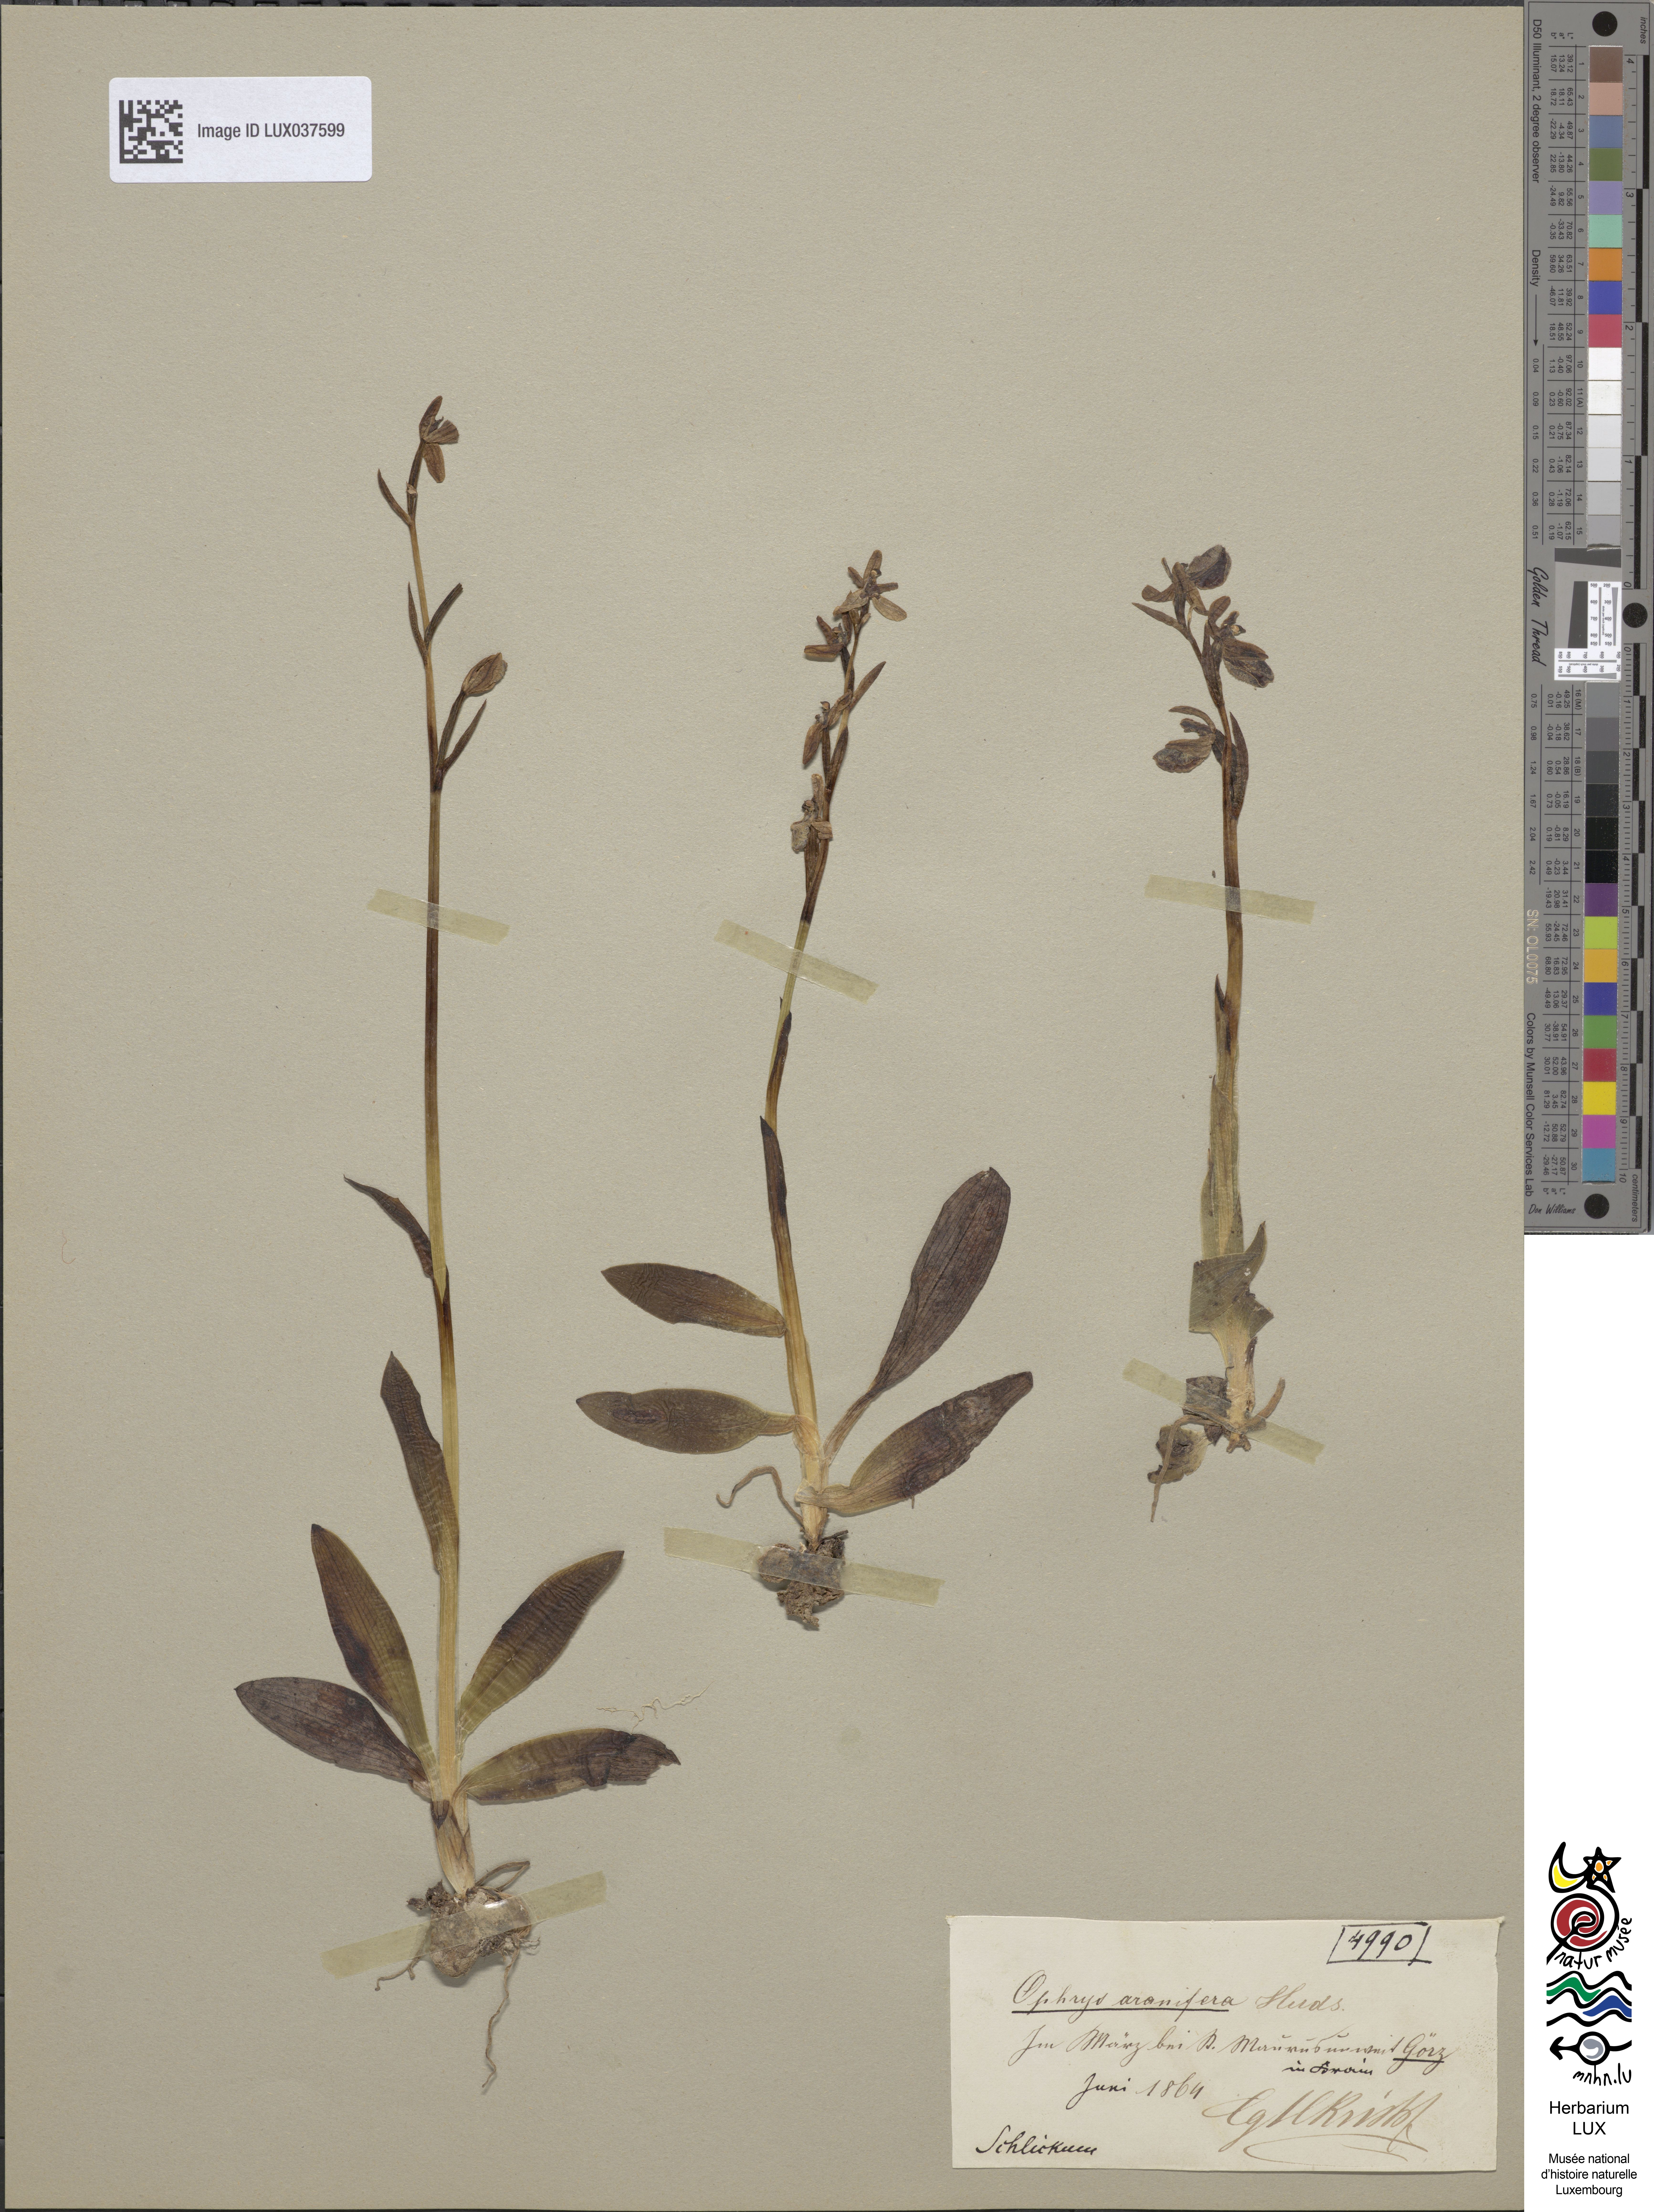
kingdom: Plantae
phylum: Tracheophyta
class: Liliopsida
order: Asparagales
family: Orchidaceae
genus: Ophrys
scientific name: Ophrys sphegodes
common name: Early spider-orchid
